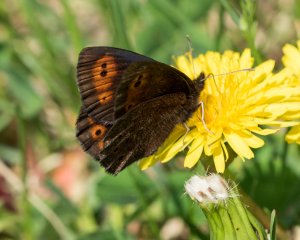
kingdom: Animalia
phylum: Arthropoda
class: Insecta
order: Lepidoptera
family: Nymphalidae
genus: Erebia
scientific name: Erebia epipsodea
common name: Common Alpine
